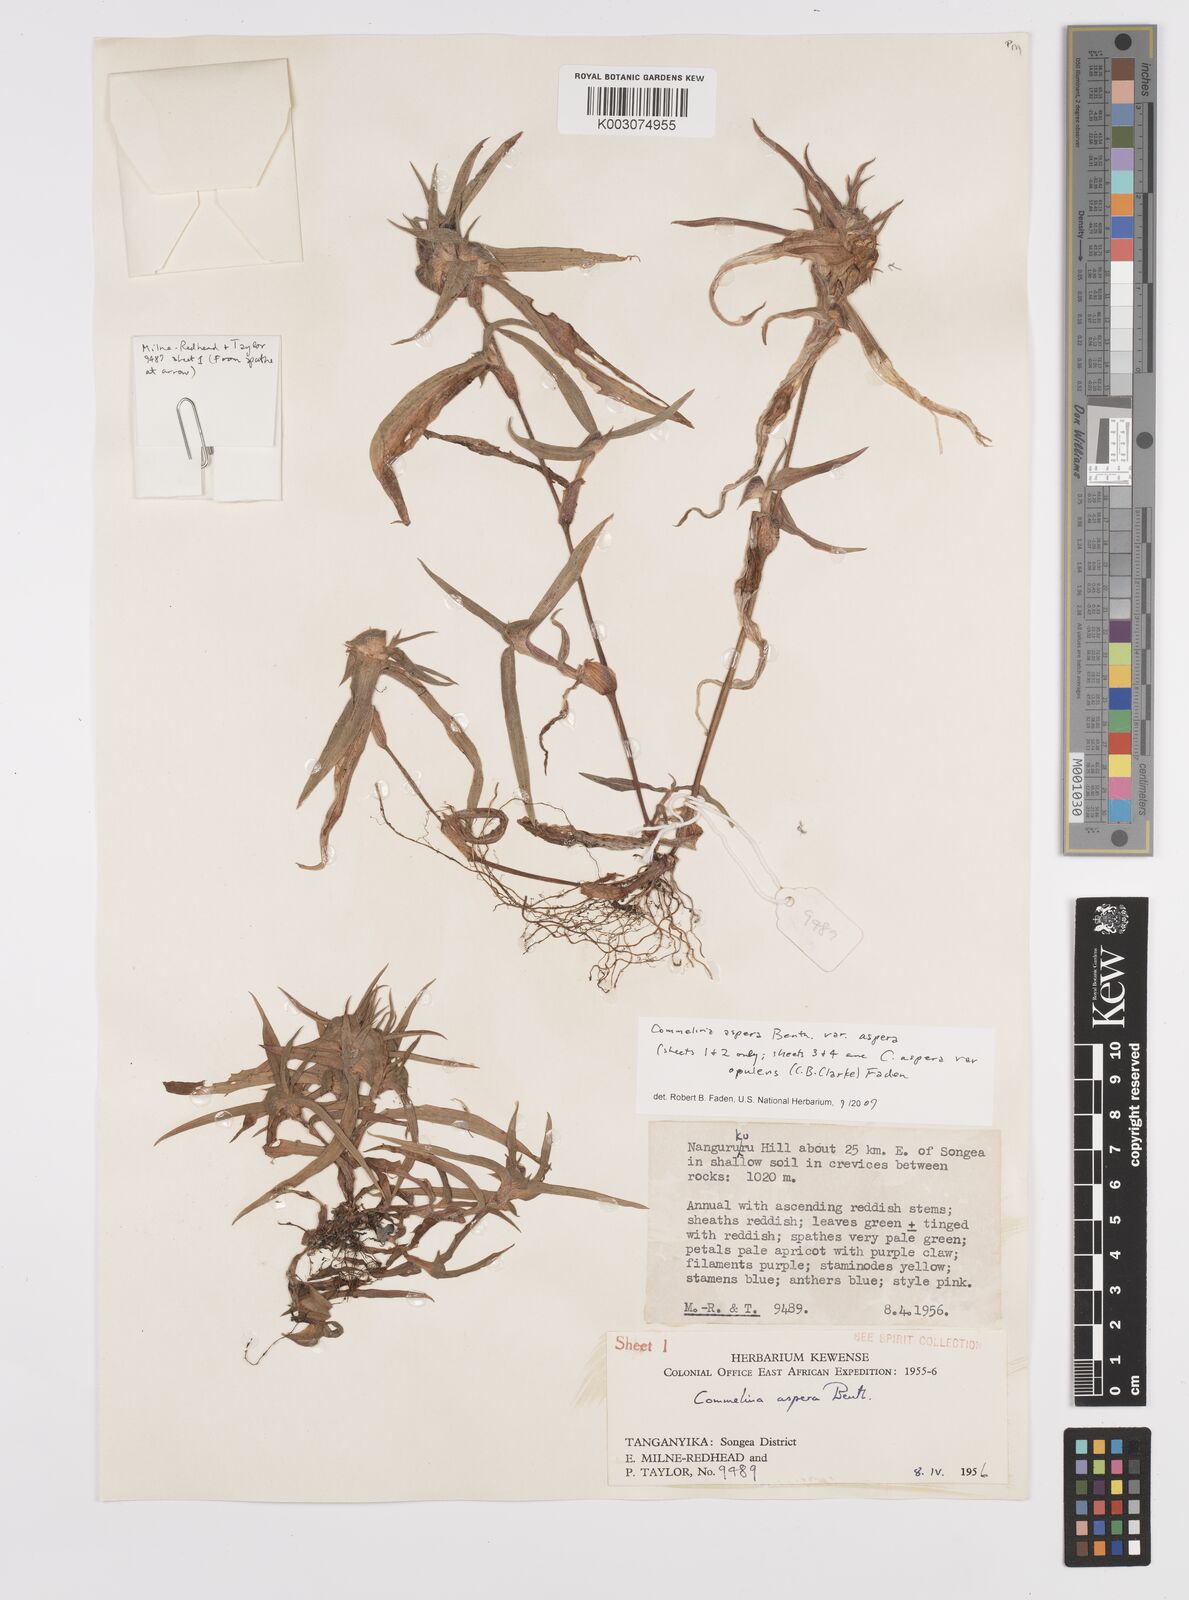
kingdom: Plantae
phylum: Tracheophyta
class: Liliopsida
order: Commelinales
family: Commelinaceae
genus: Commelina
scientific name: Commelina aspera
